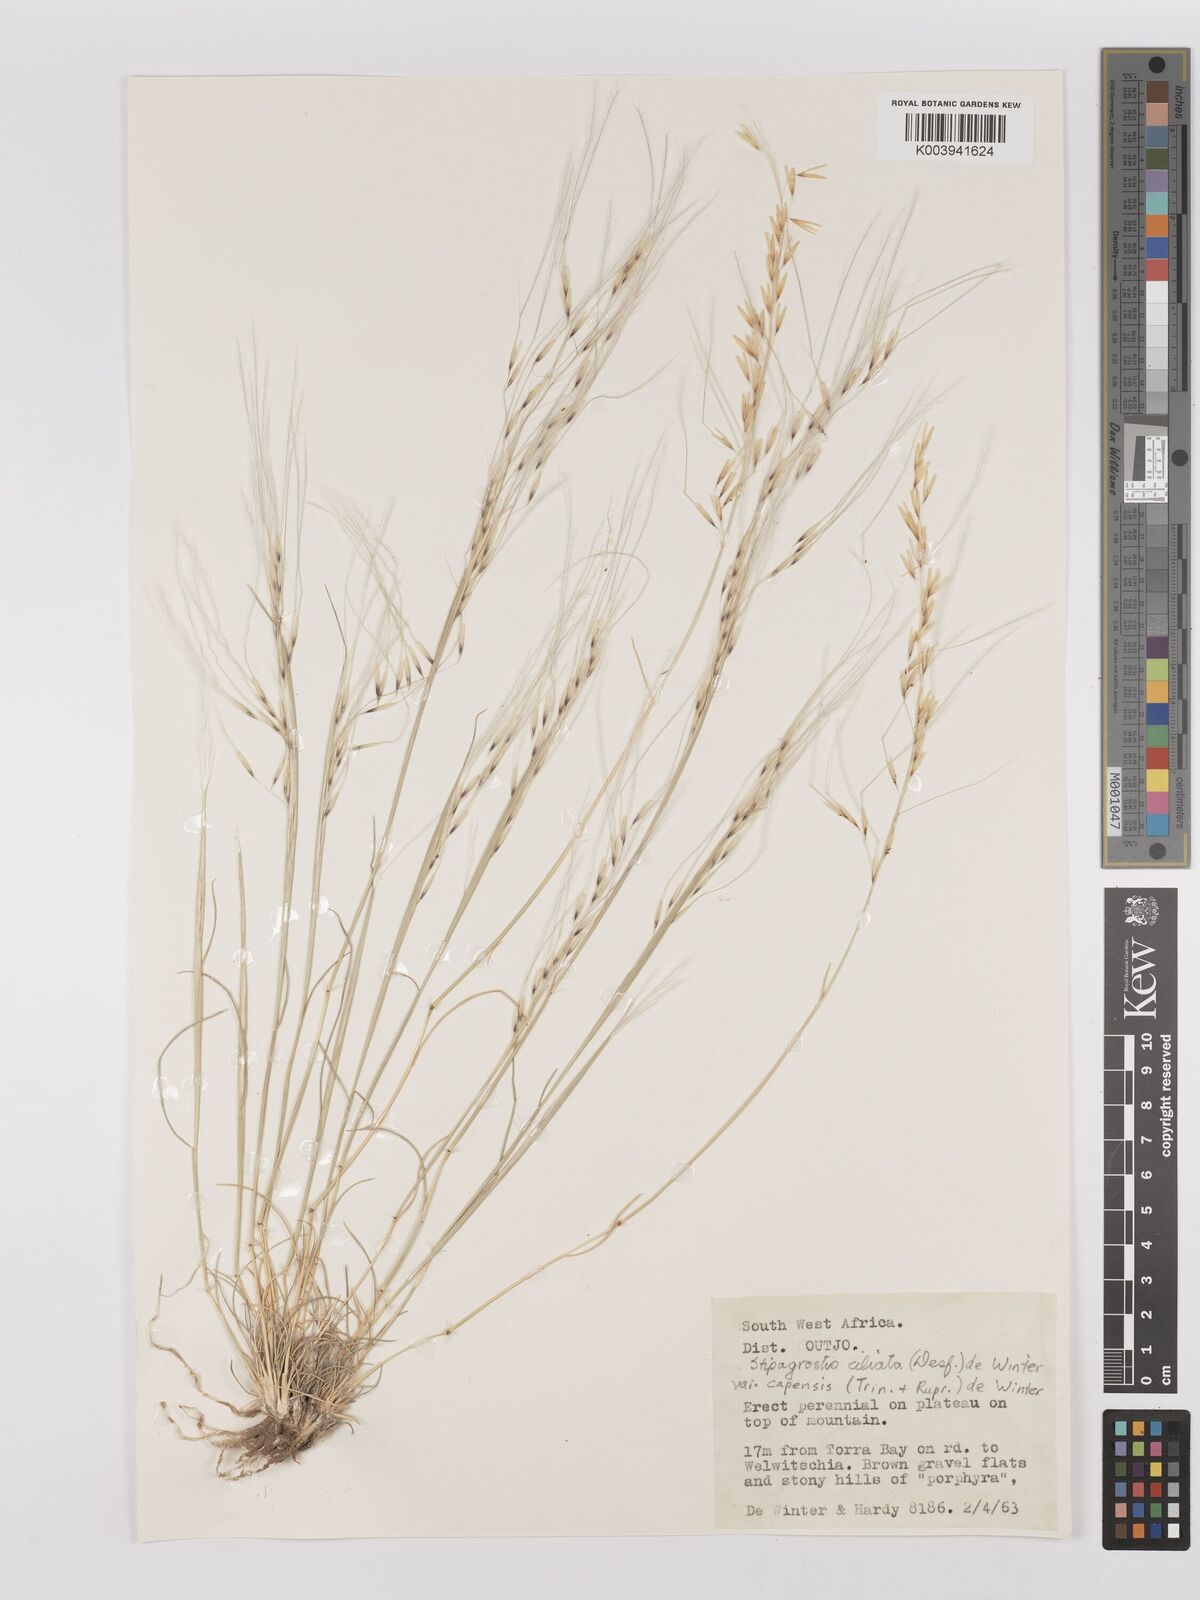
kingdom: Plantae
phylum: Tracheophyta
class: Liliopsida
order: Poales
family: Poaceae
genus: Stipagrostis
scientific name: Stipagrostis ciliata
